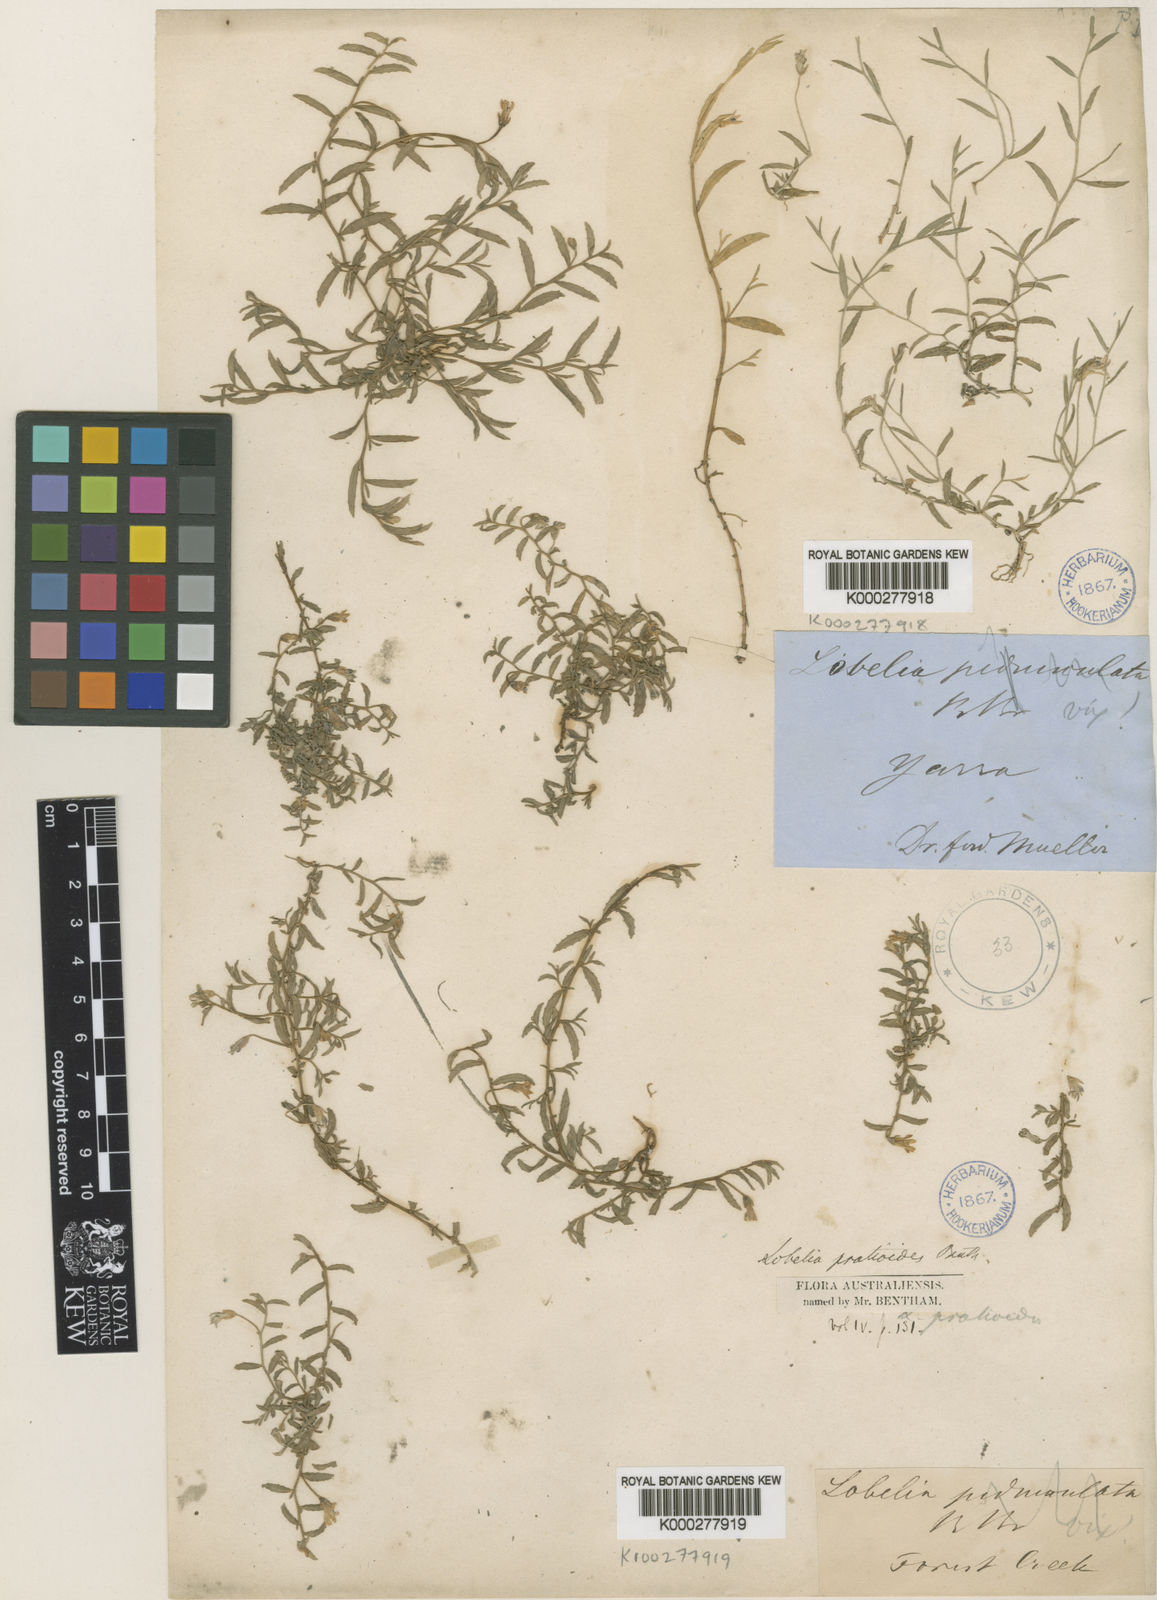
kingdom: Plantae
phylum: Tracheophyta
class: Magnoliopsida
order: Asterales
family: Campanulaceae
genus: Lobelia
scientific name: Lobelia pratioides
